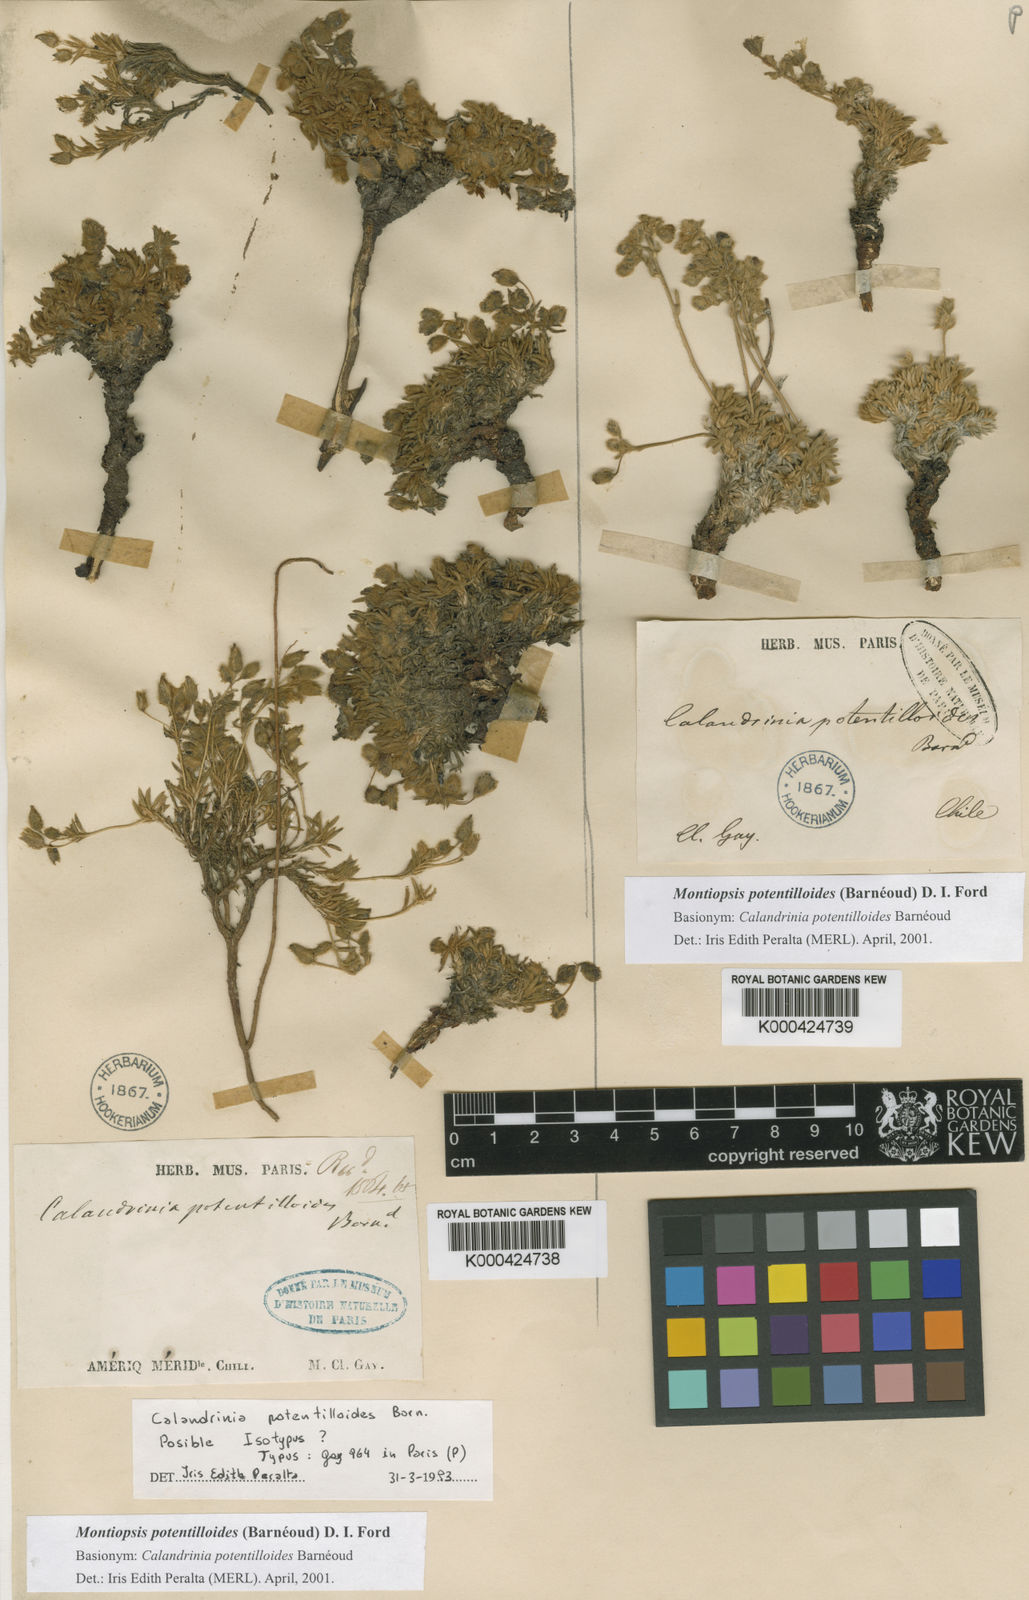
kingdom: Plantae
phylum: Tracheophyta
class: Magnoliopsida
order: Caryophyllales
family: Montiaceae
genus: Montiopsis
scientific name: Montiopsis
